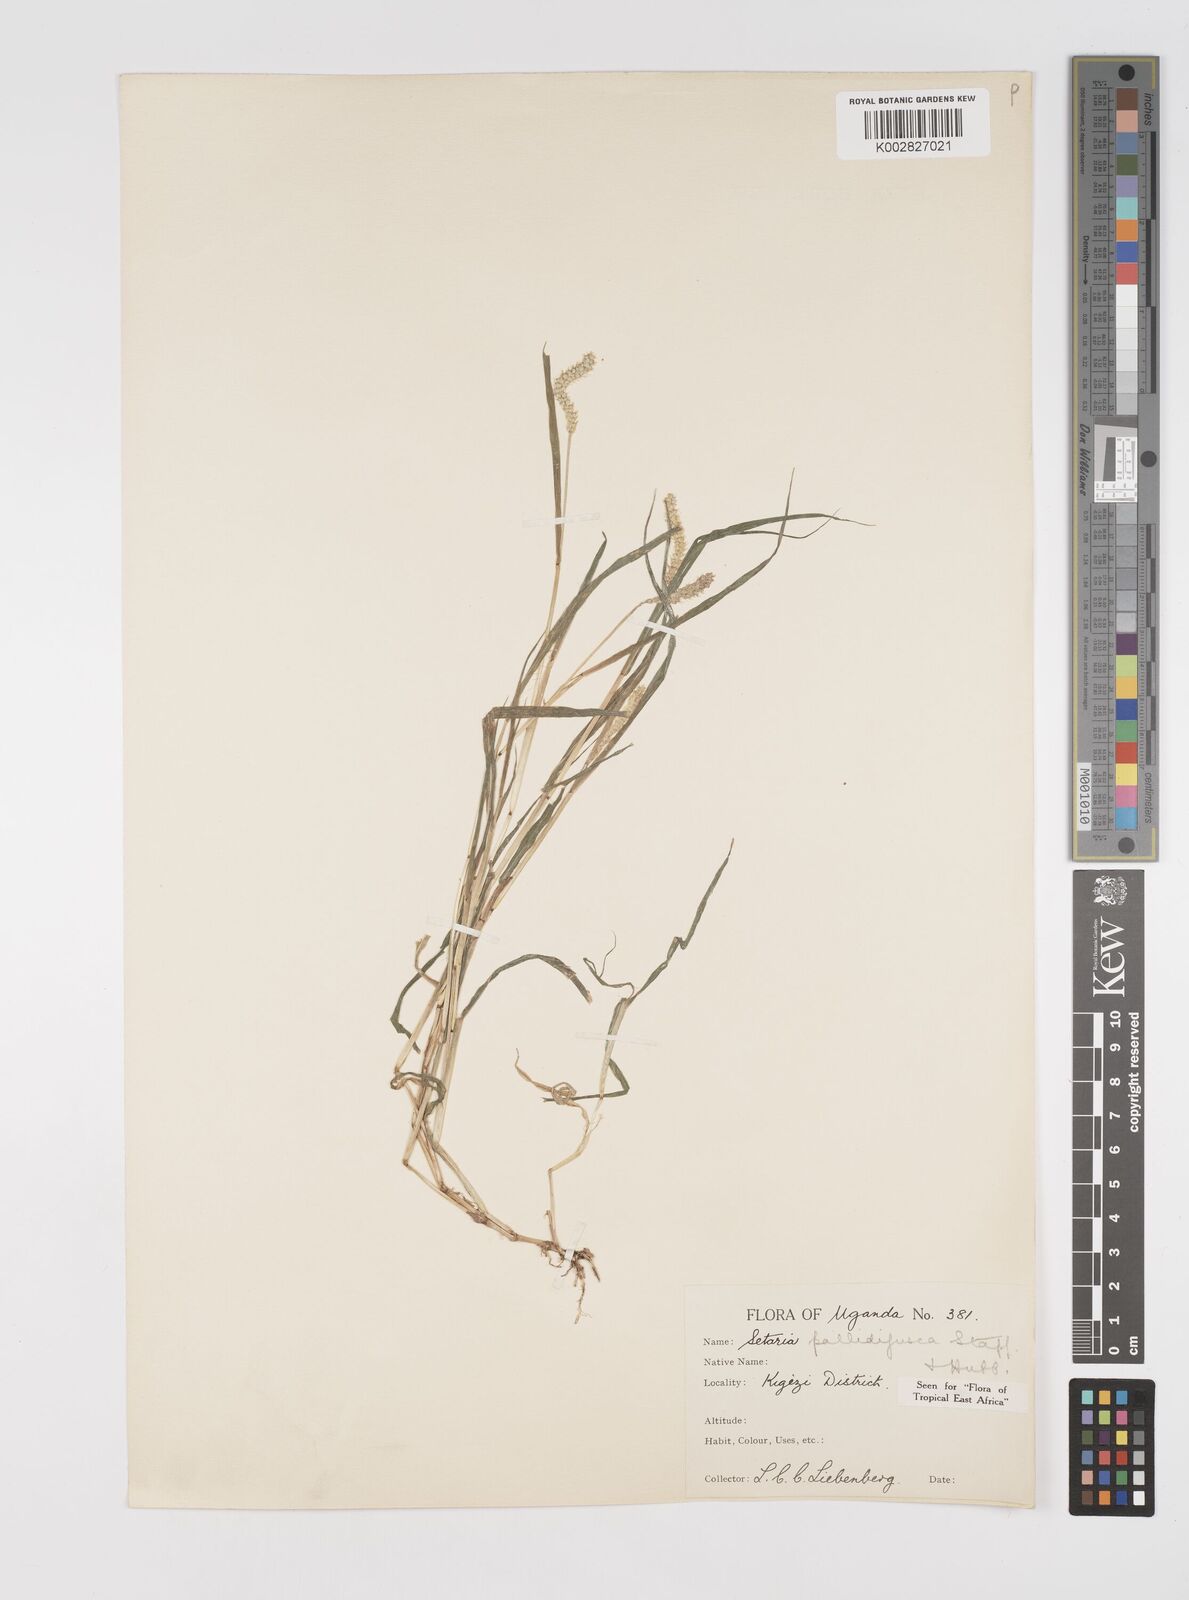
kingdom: Plantae
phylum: Tracheophyta
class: Liliopsida
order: Poales
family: Poaceae
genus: Setaria
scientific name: Setaria pumila
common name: Yellow bristle-grass
